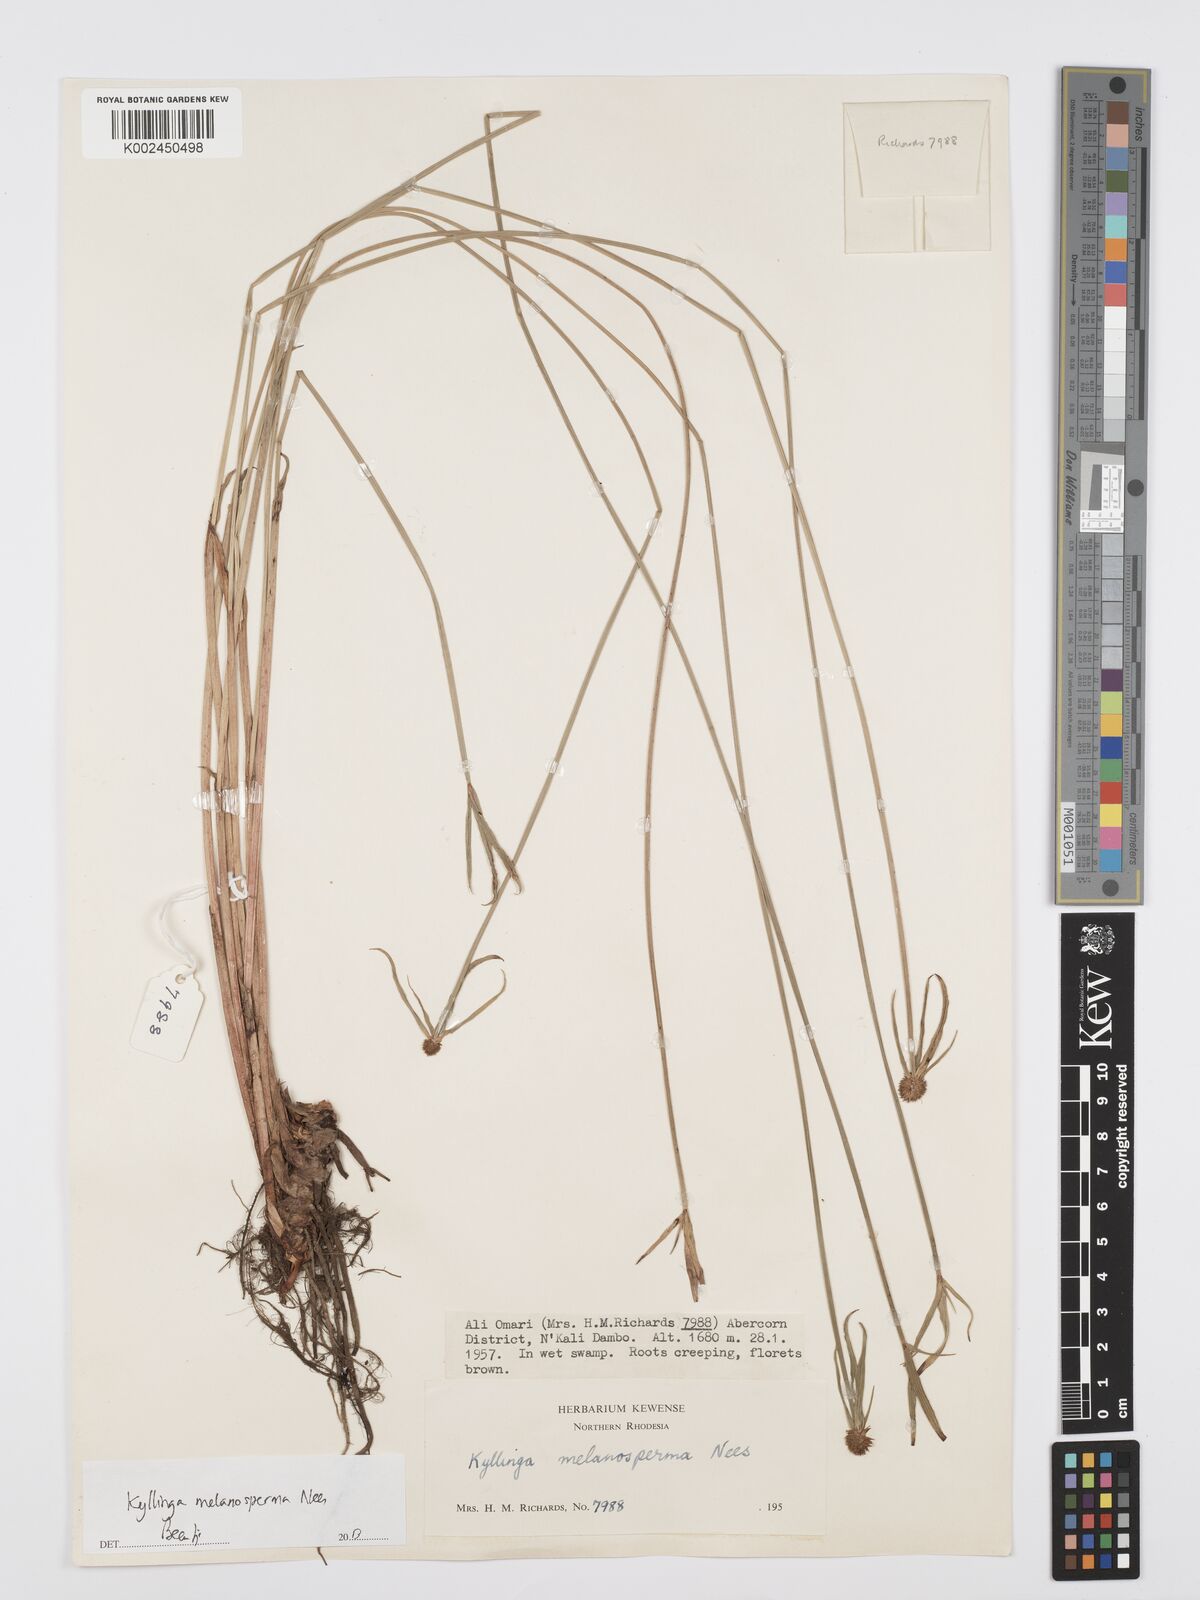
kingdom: Plantae
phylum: Tracheophyta
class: Liliopsida
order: Poales
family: Cyperaceae
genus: Cyperus
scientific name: Cyperus melanospermus
